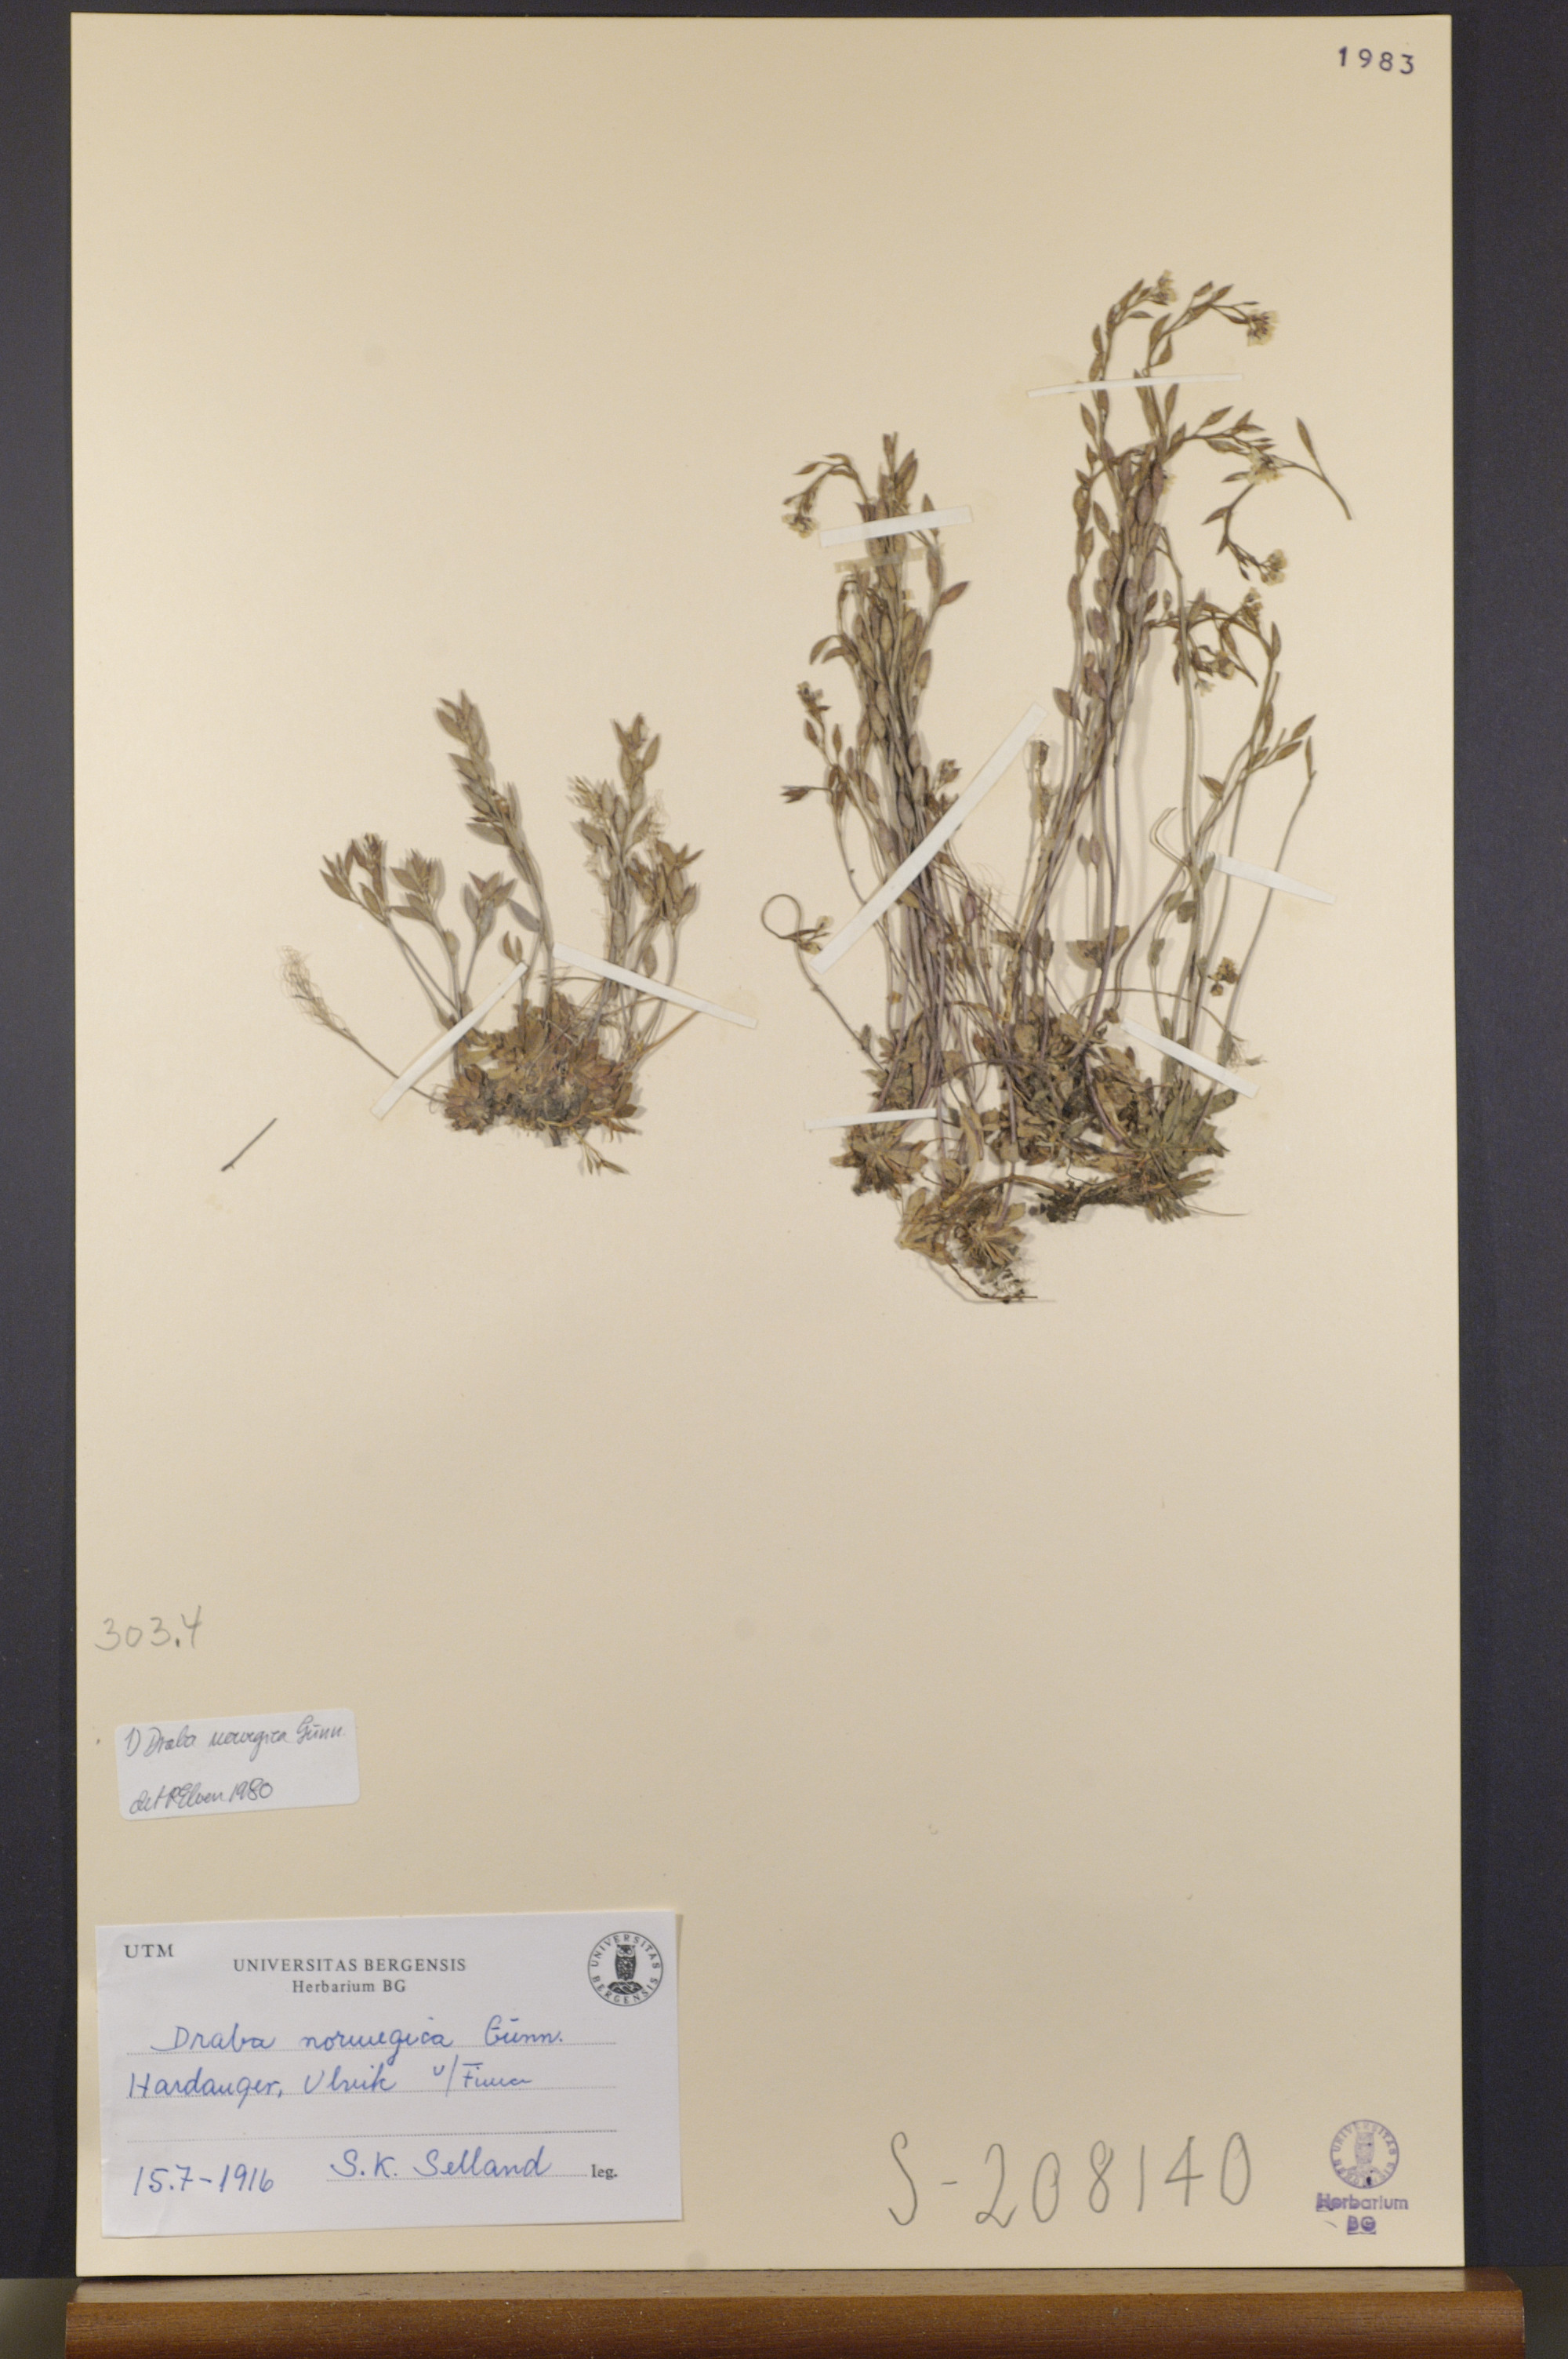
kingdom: Plantae
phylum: Tracheophyta
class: Magnoliopsida
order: Brassicales
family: Brassicaceae
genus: Draba
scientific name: Draba norvegica
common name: Rock whitlowgrass
